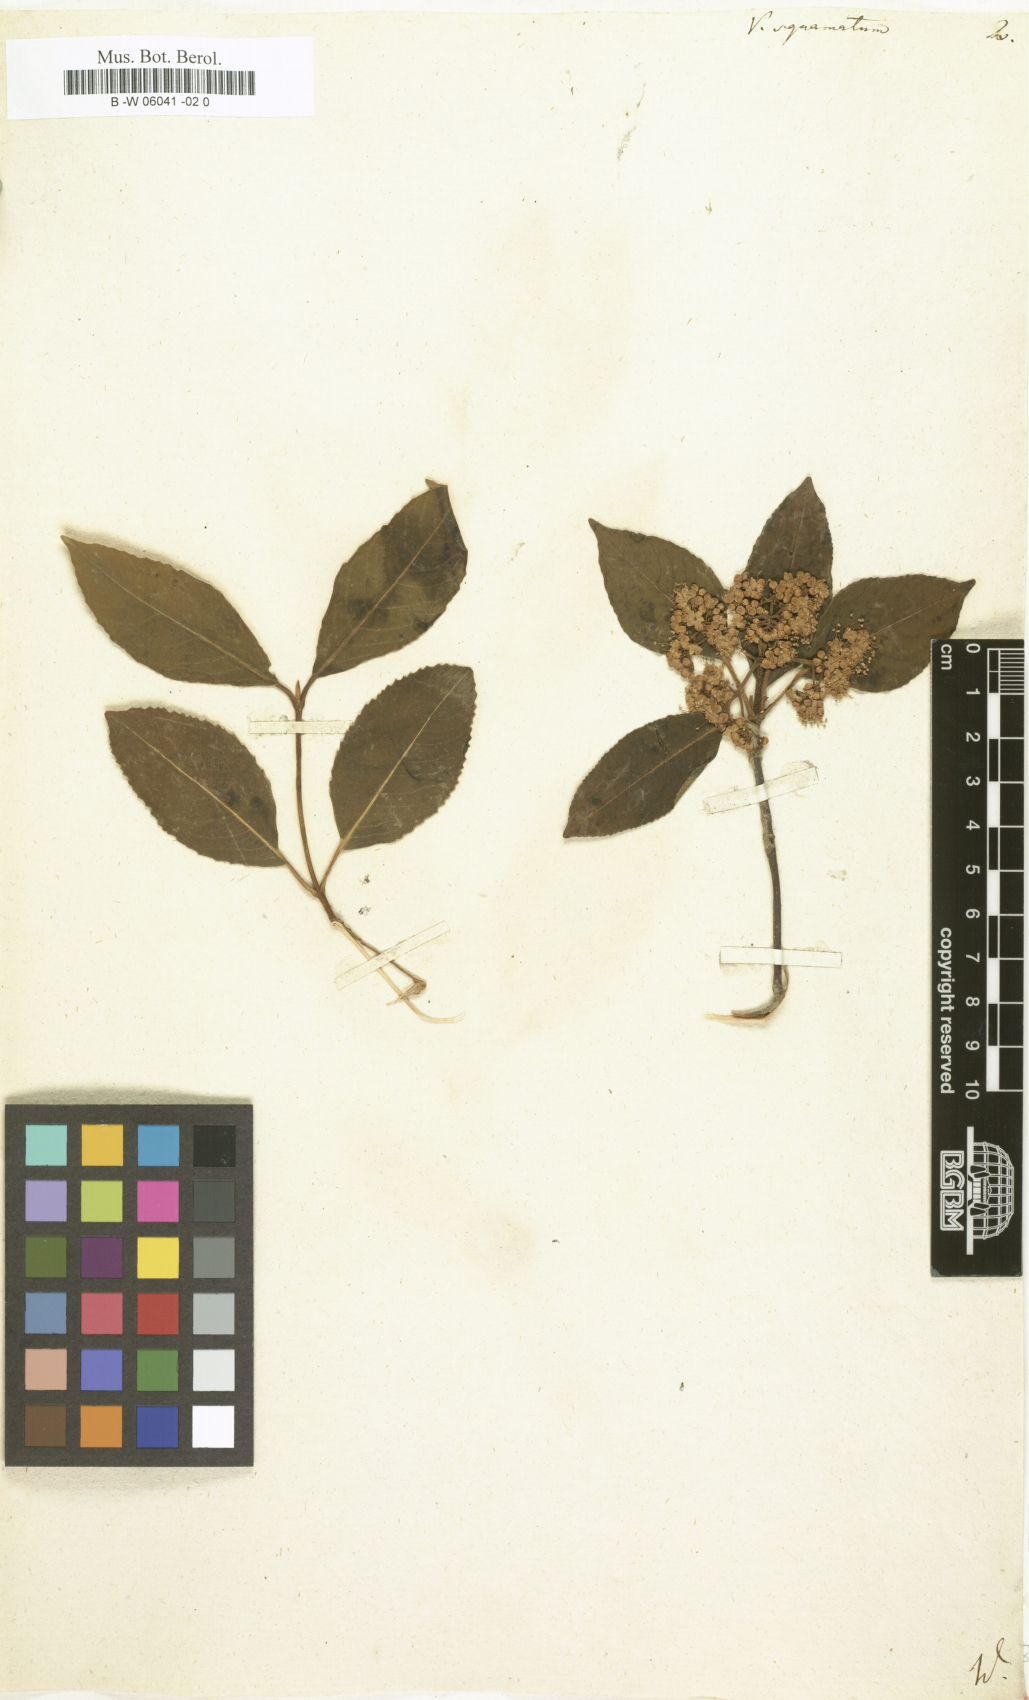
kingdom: Plantae
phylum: Tracheophyta
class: Magnoliopsida
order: Dipsacales
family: Viburnaceae
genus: Viburnum
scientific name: Viburnum cassinoides
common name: Swamp haw
